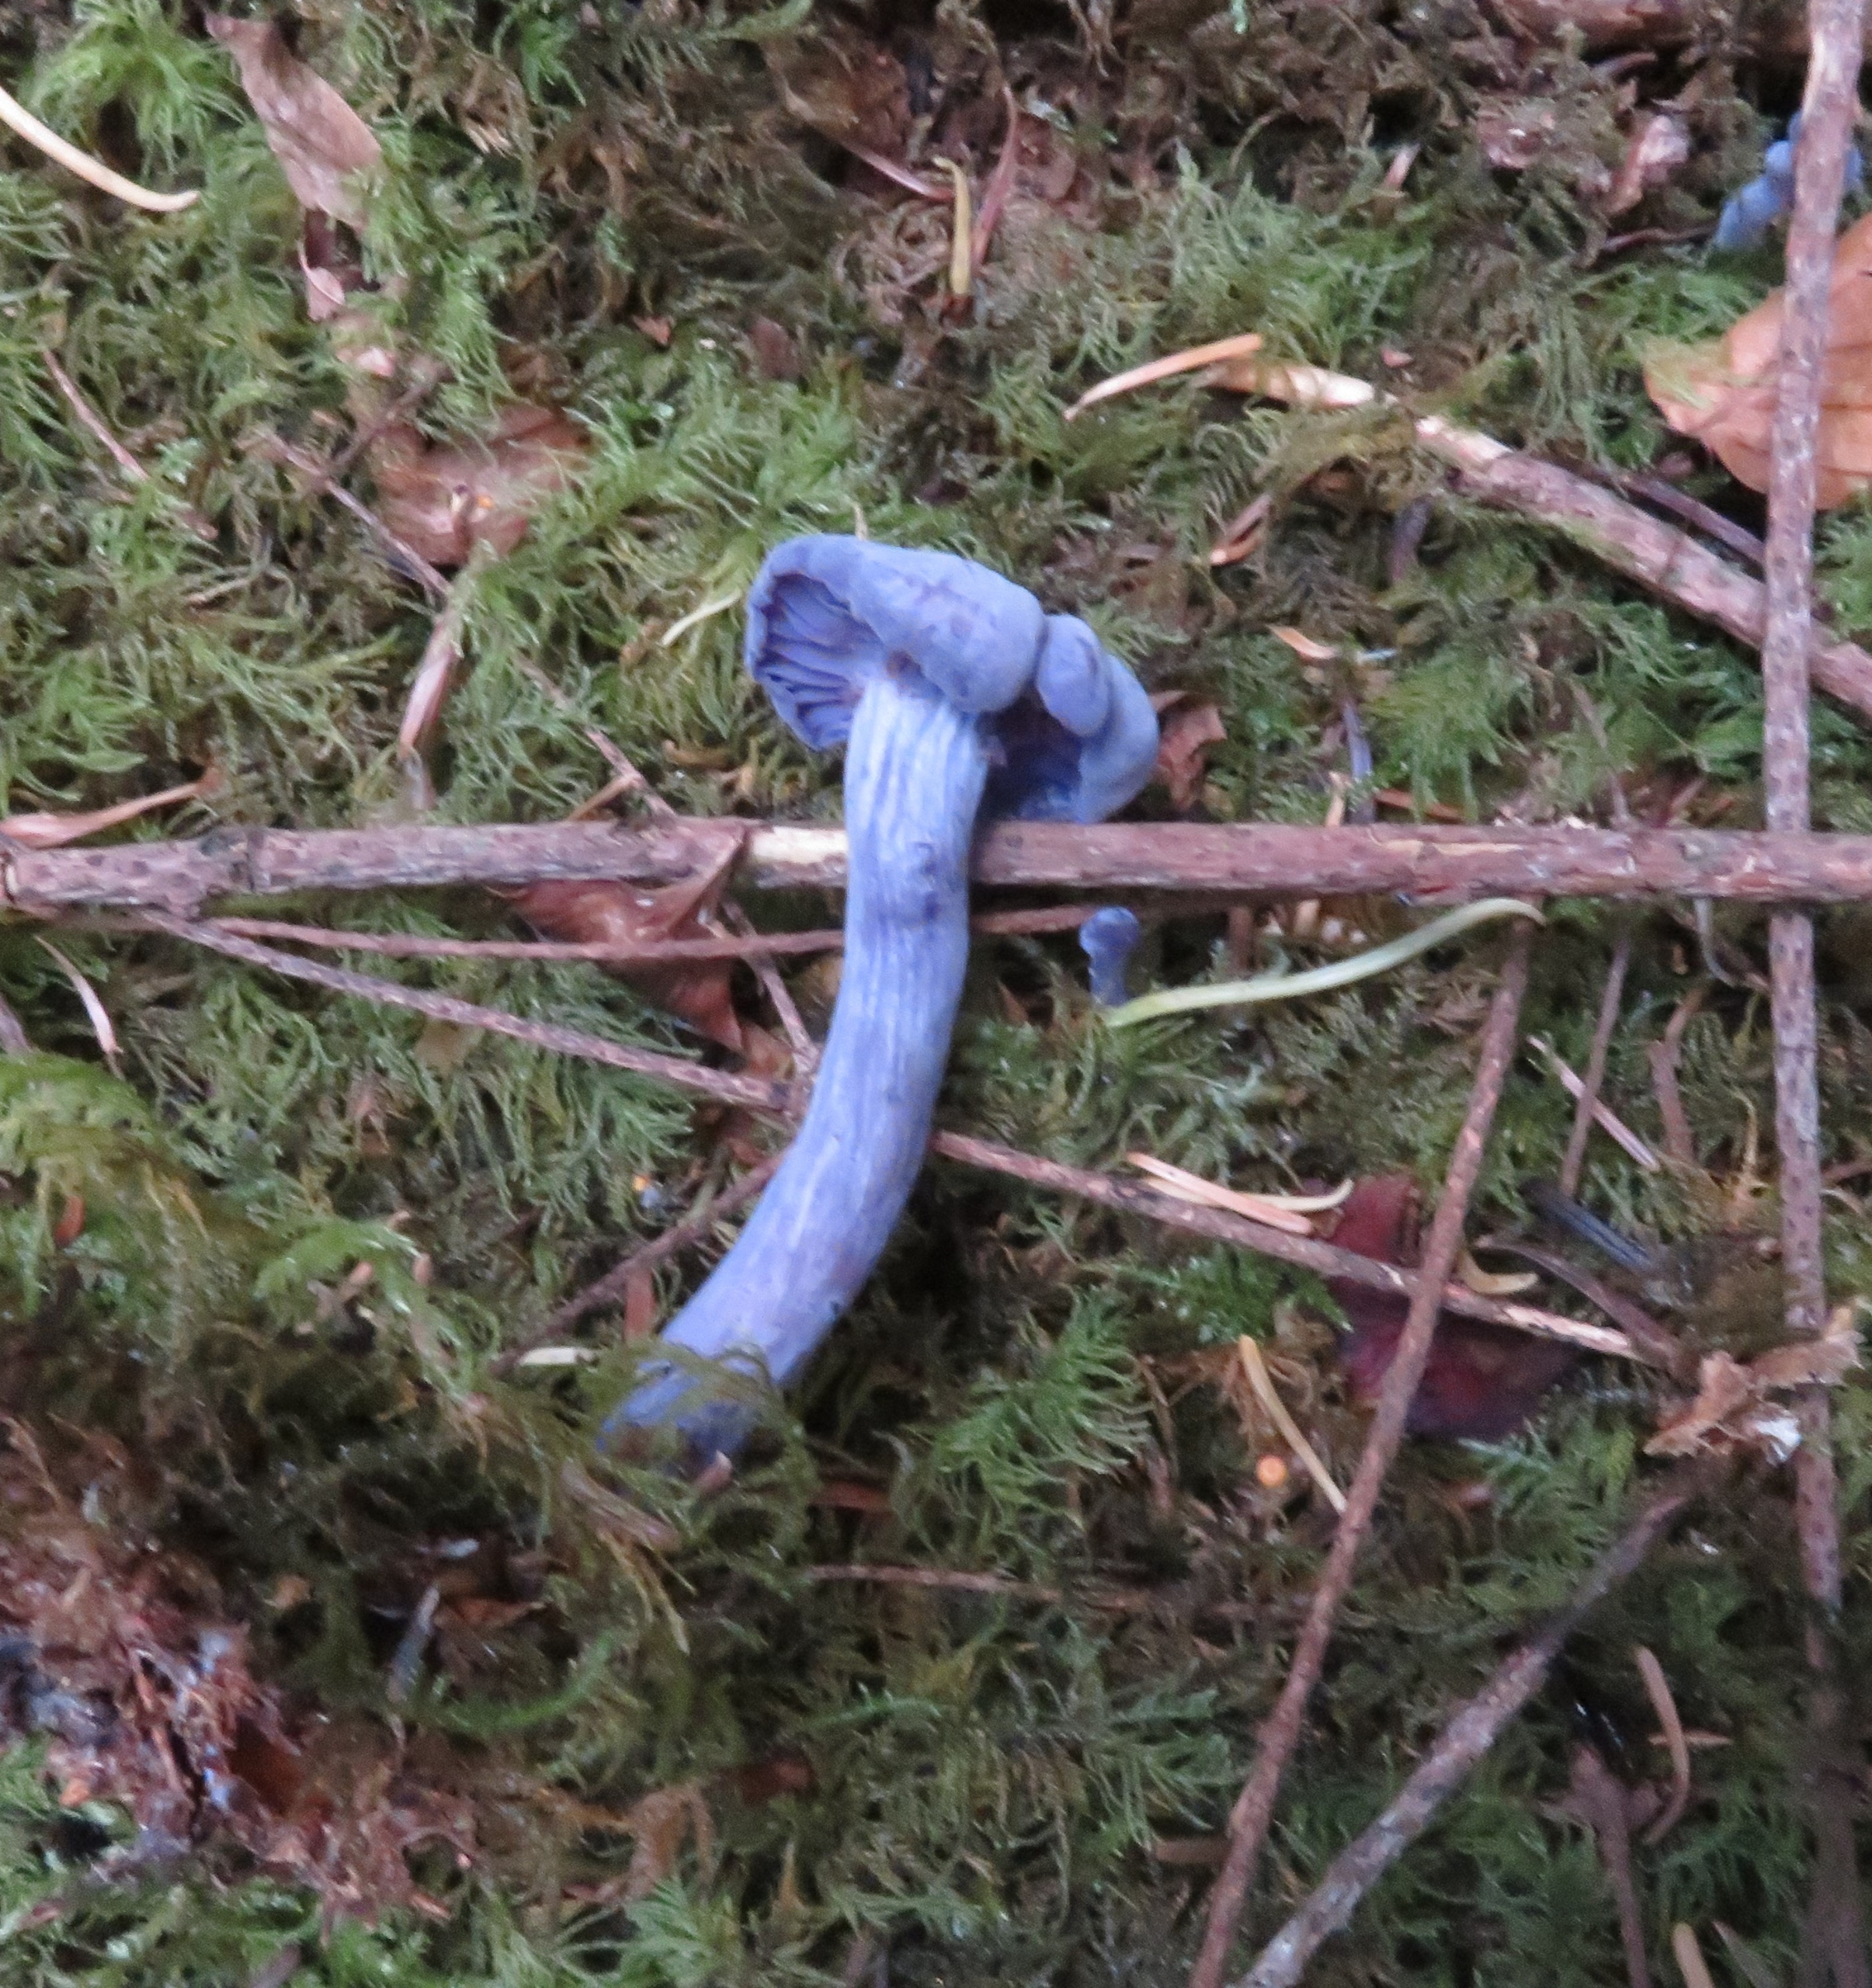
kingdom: Fungi
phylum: Basidiomycota
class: Agaricomycetes
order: Agaricales
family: Hydnangiaceae
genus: Laccaria
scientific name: Laccaria amethystina
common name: Violet ametysthat
